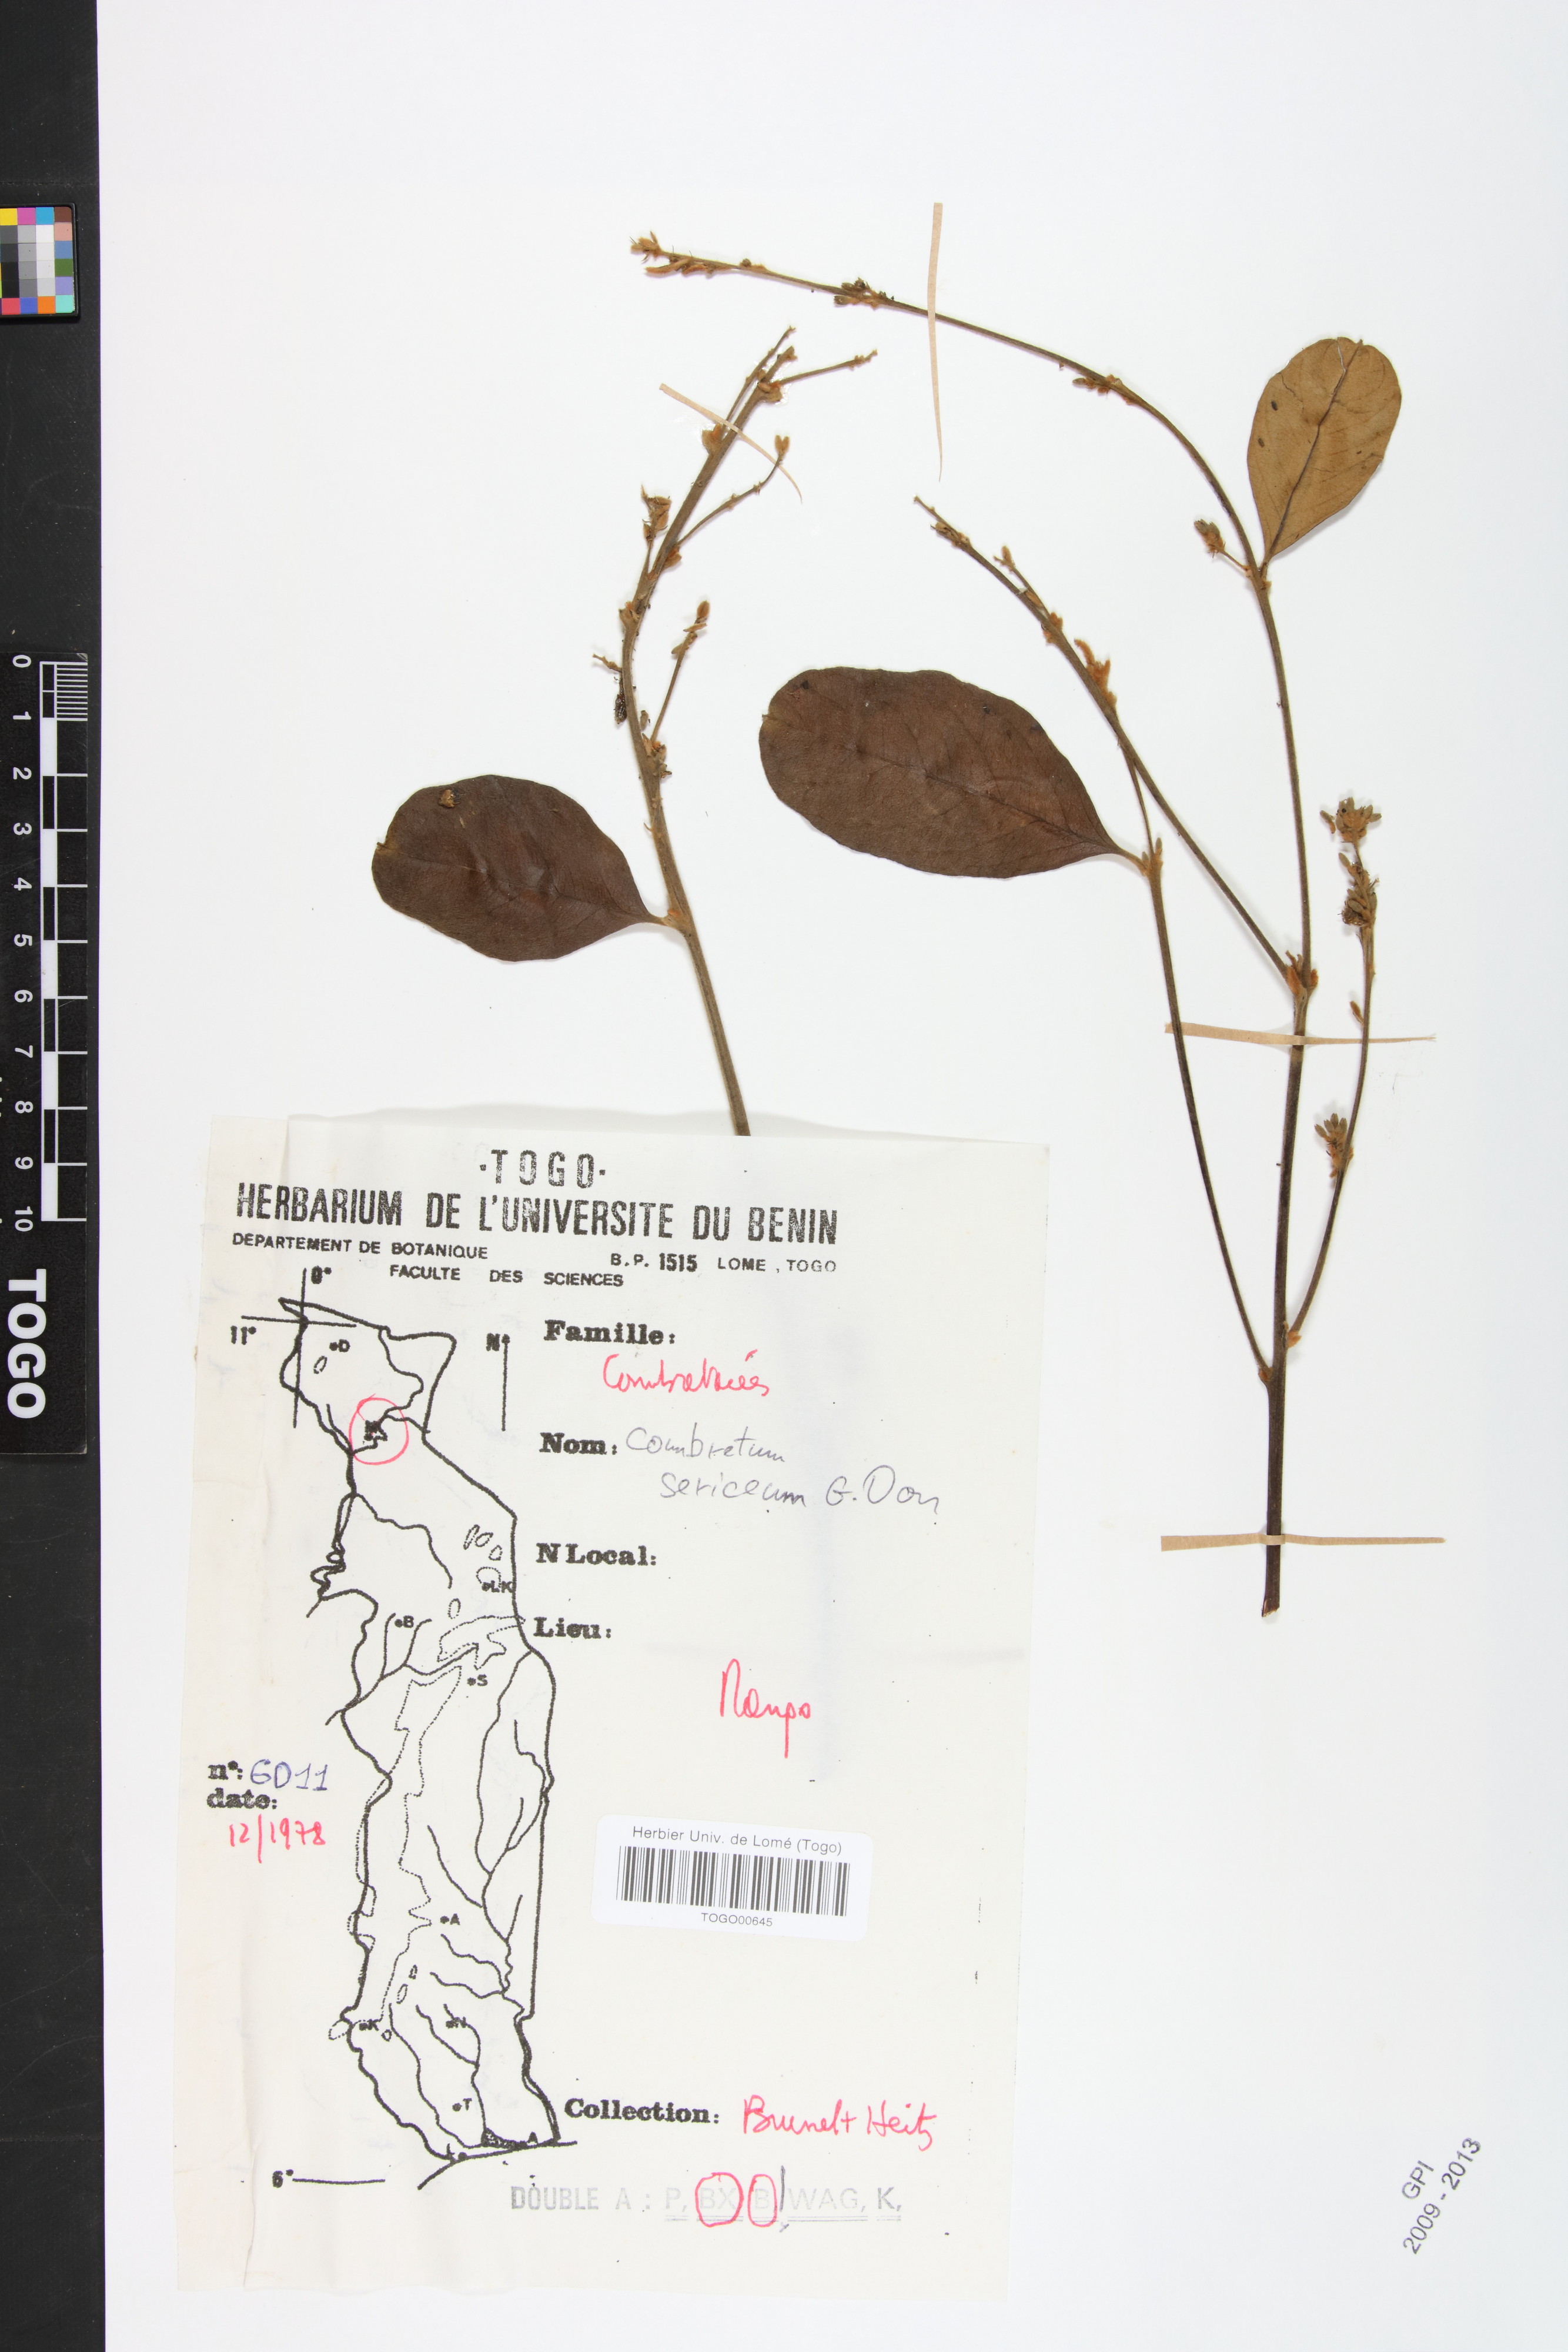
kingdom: Plantae
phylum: Tracheophyta
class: Magnoliopsida
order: Myrtales
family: Combretaceae
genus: Combretum
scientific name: Combretum sericeum
